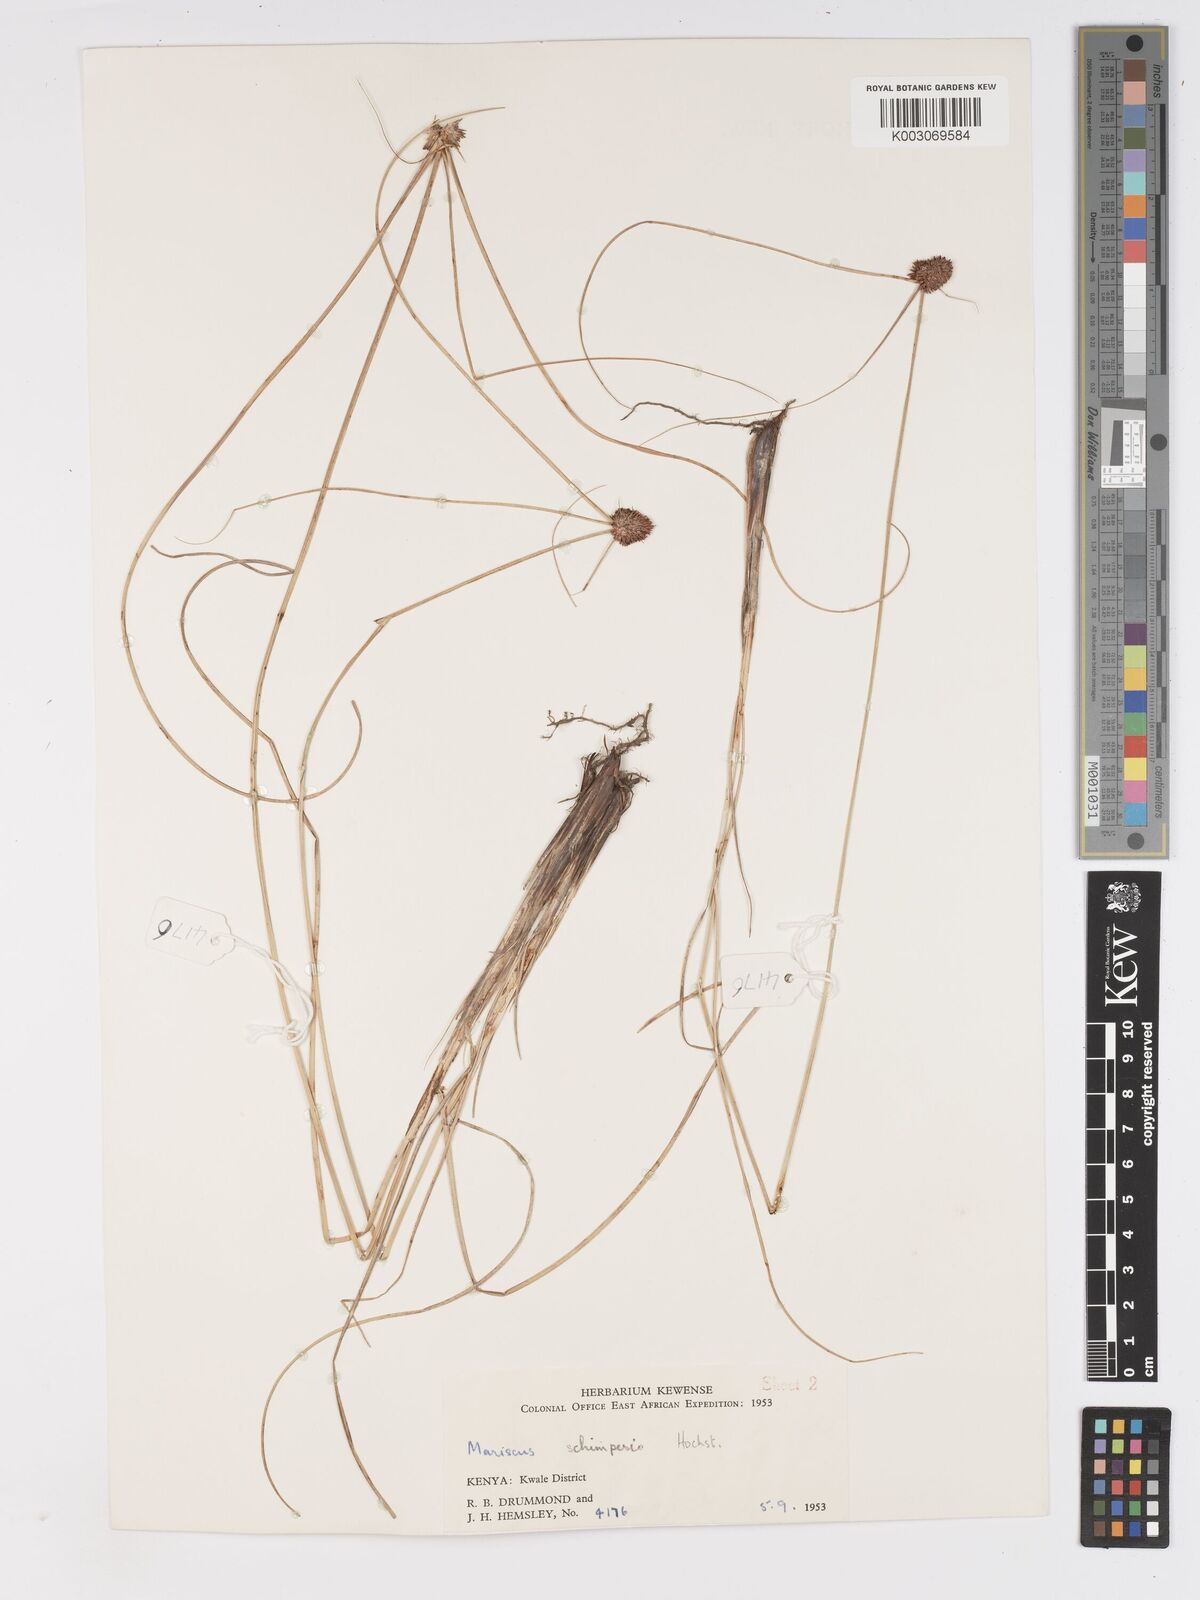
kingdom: Plantae
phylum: Tracheophyta
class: Liliopsida
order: Poales
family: Cyperaceae
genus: Cyperus
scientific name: Cyperus cruentus
